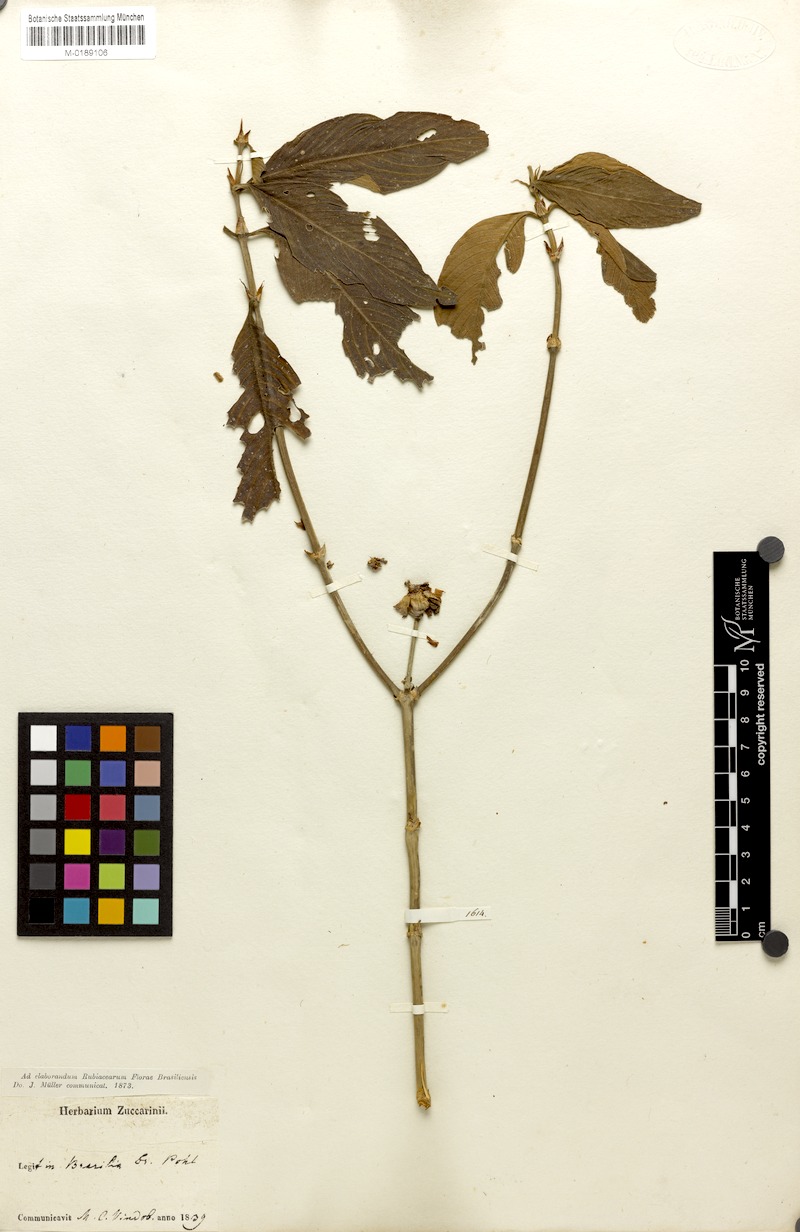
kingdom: Plantae
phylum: Tracheophyta
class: Magnoliopsida
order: Gentianales
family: Rubiaceae
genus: Palicourea
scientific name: Palicourea ruelliifolia
